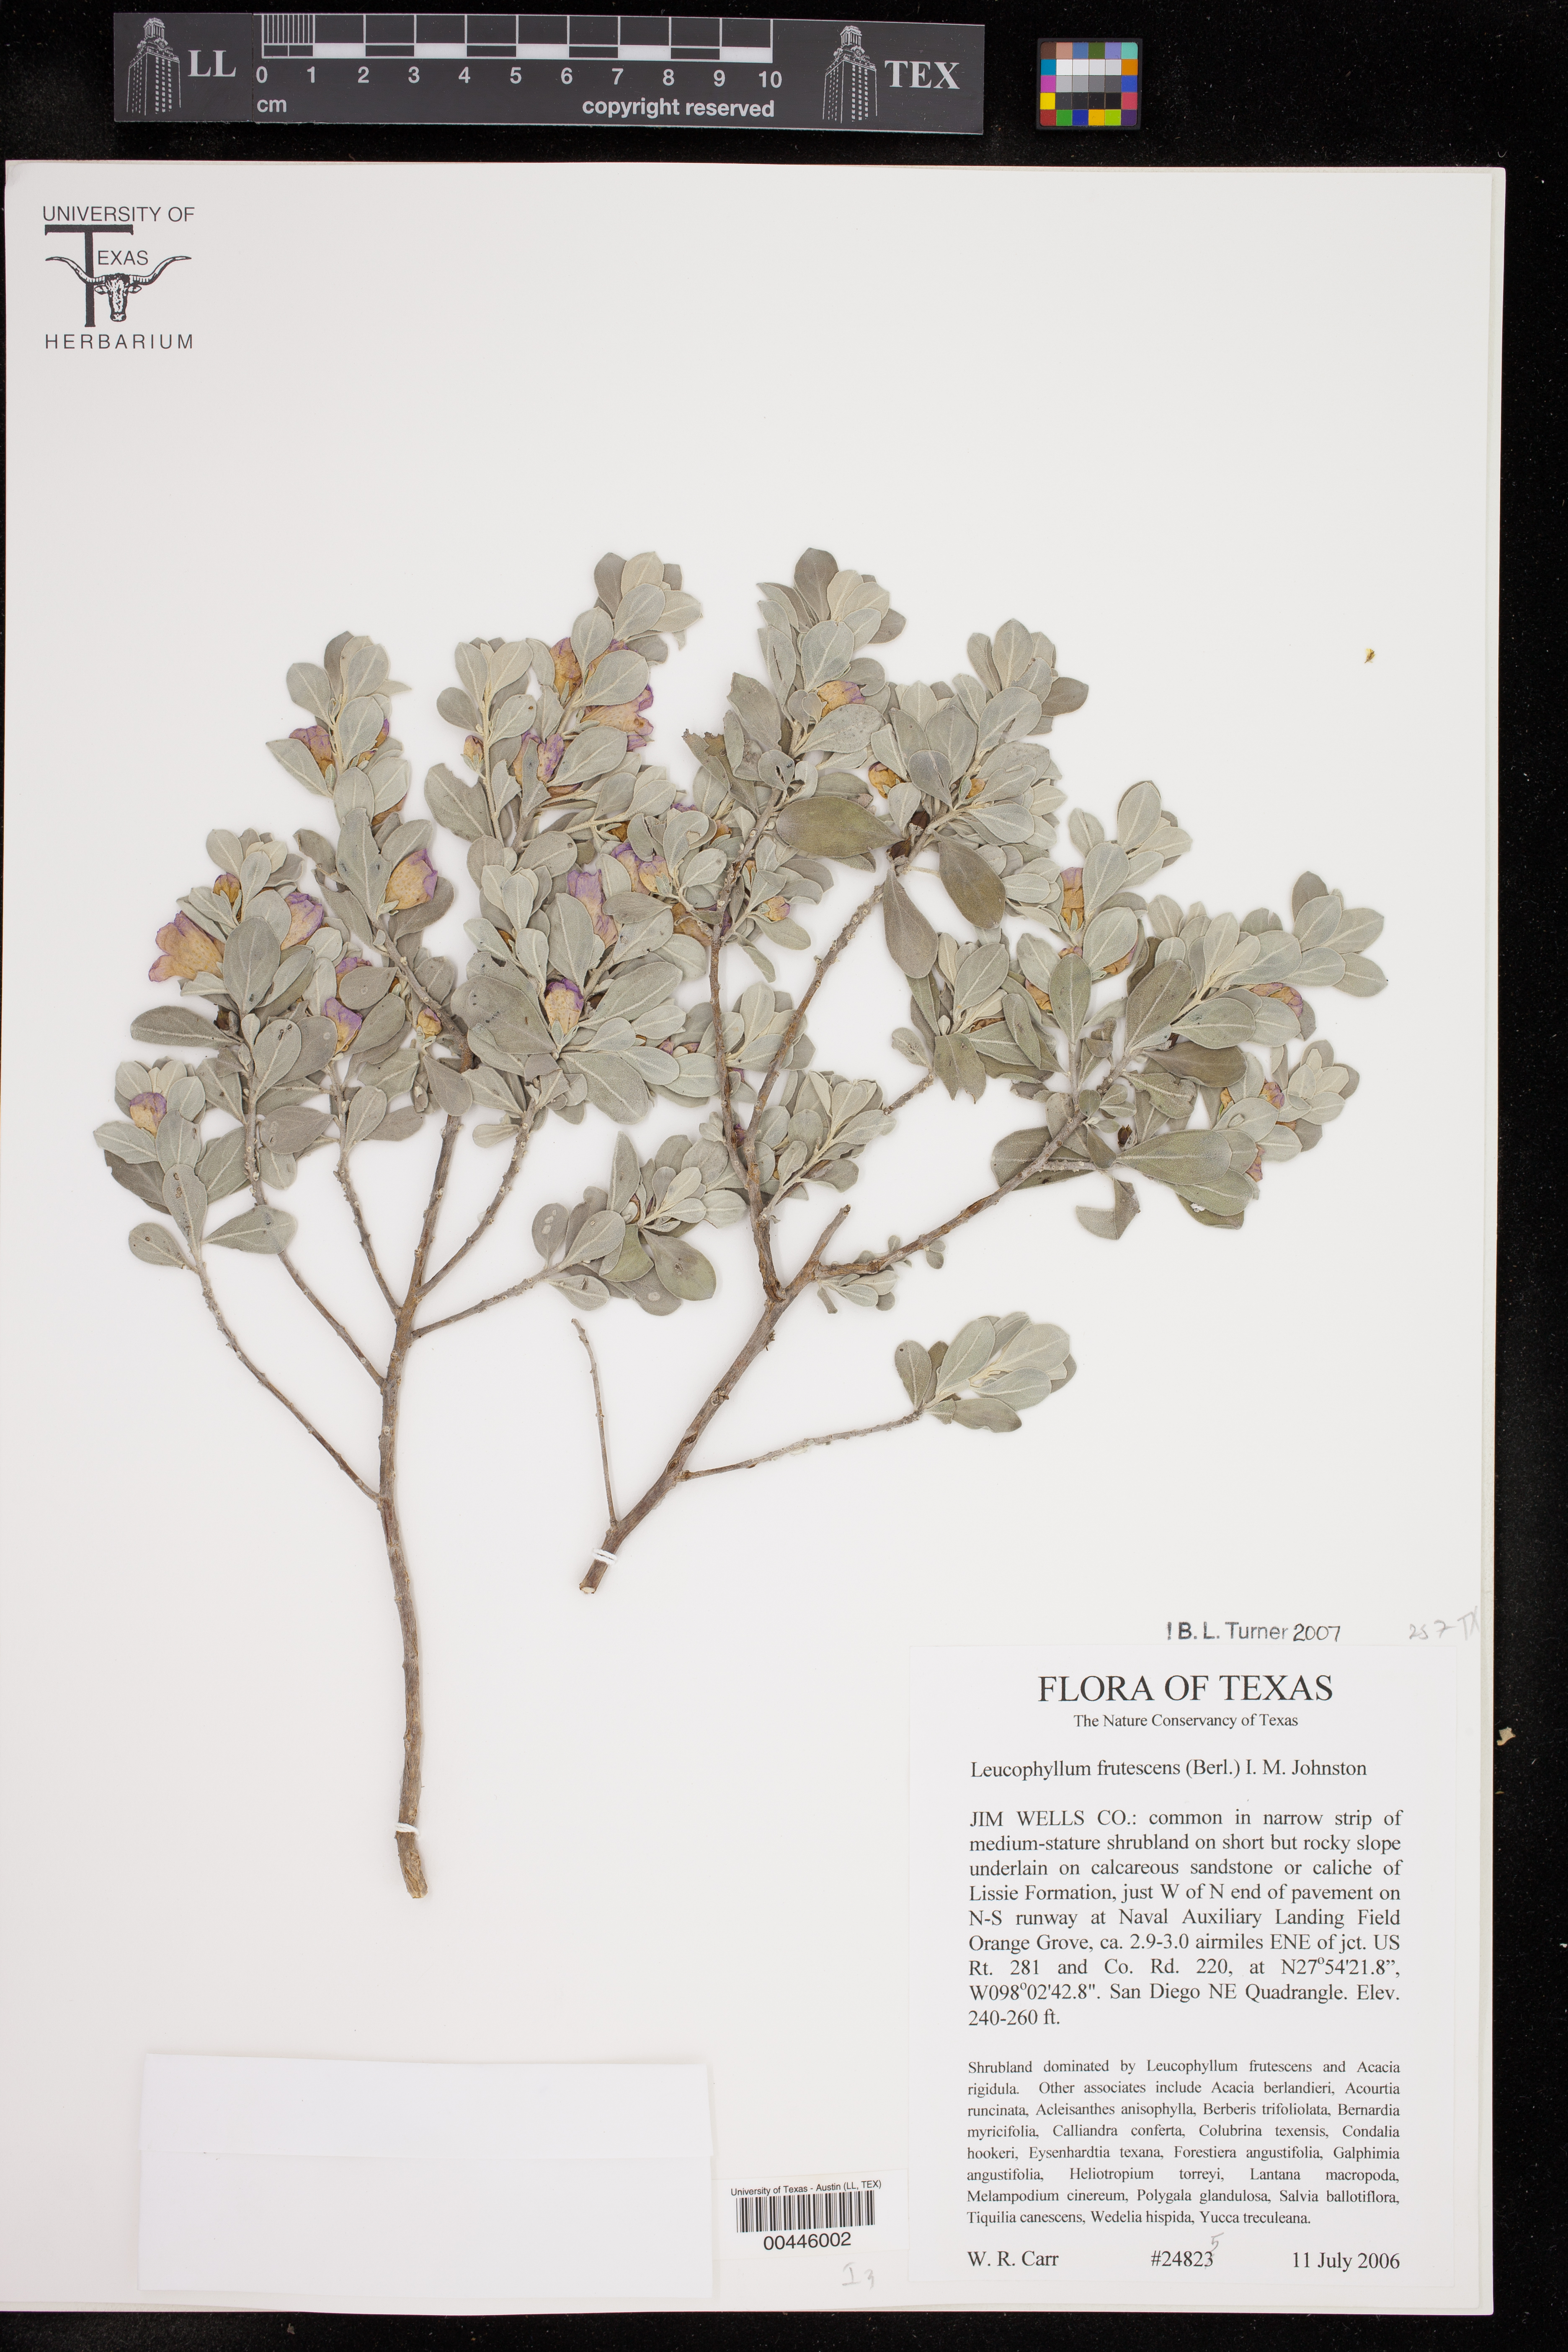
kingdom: Plantae
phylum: Tracheophyta
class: Magnoliopsida
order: Lamiales
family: Scrophulariaceae
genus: Leucophyllum
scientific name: Leucophyllum frutescens
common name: Texas silverleaf
